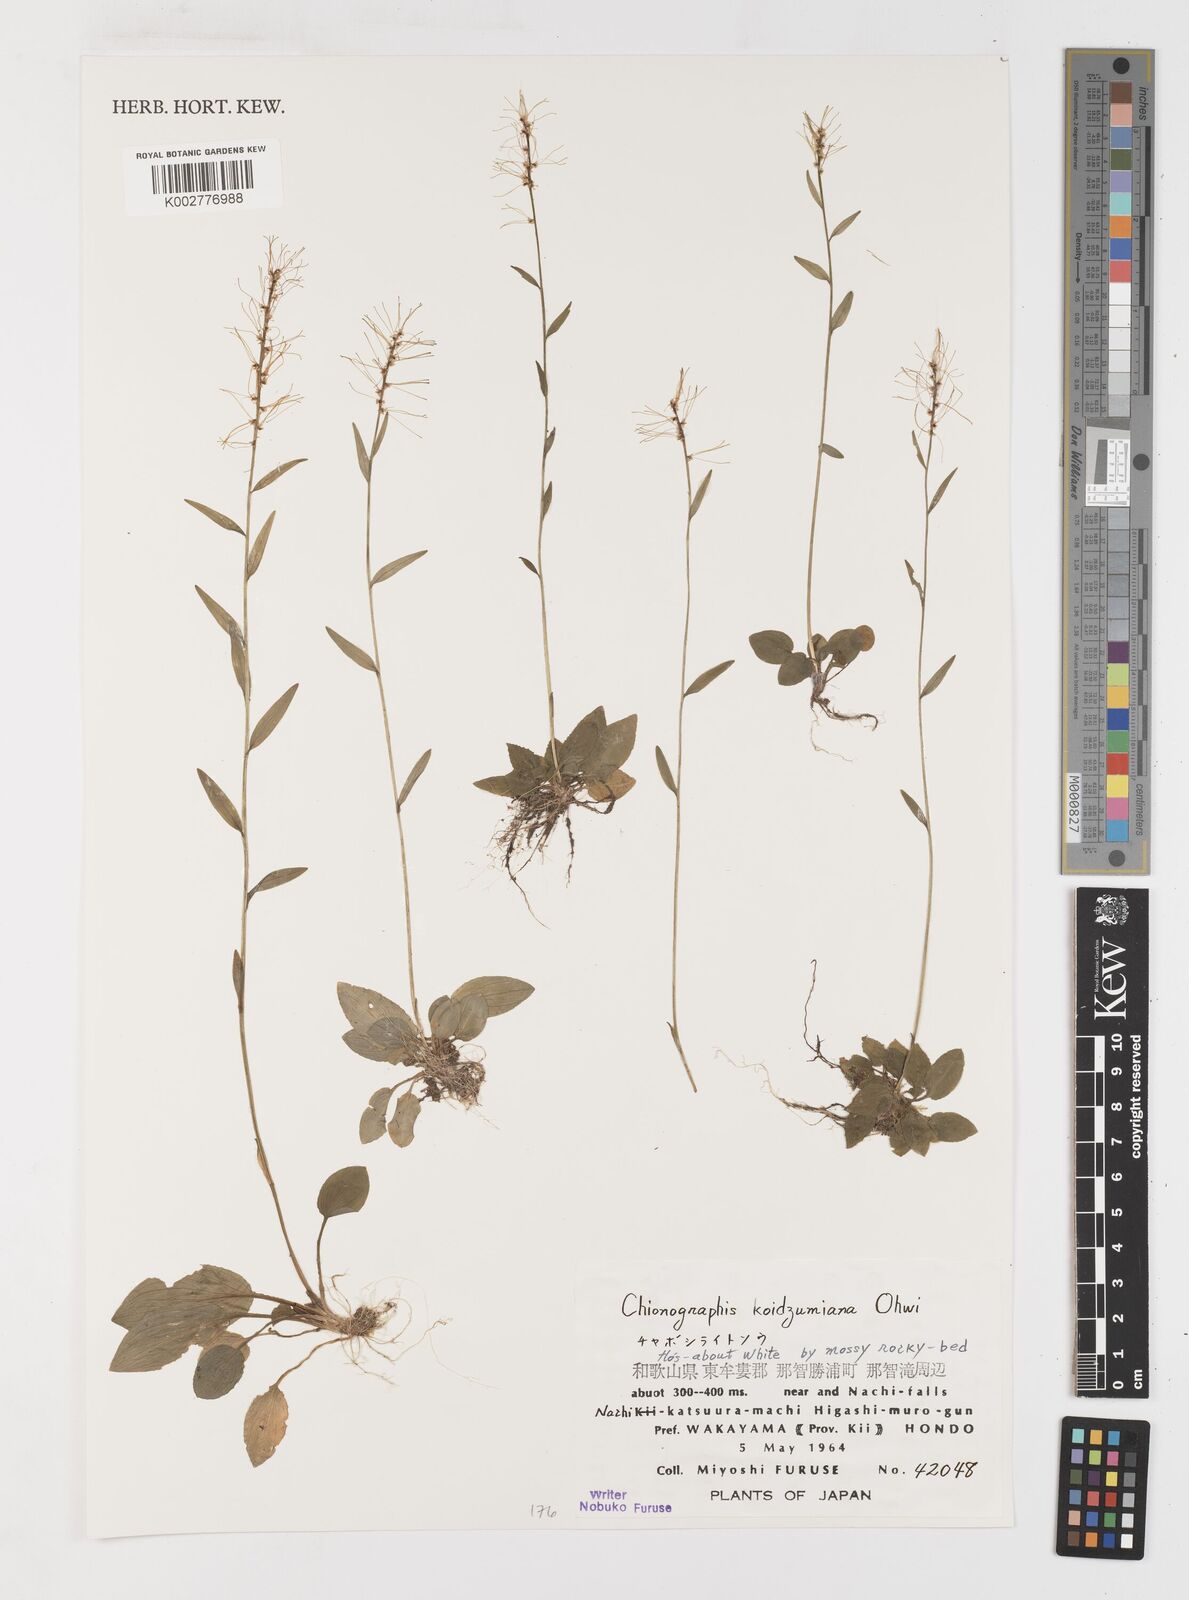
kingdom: Plantae
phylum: Tracheophyta
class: Liliopsida
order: Liliales
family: Melanthiaceae
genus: Chamaelirium
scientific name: Chamaelirium koidzumianum
